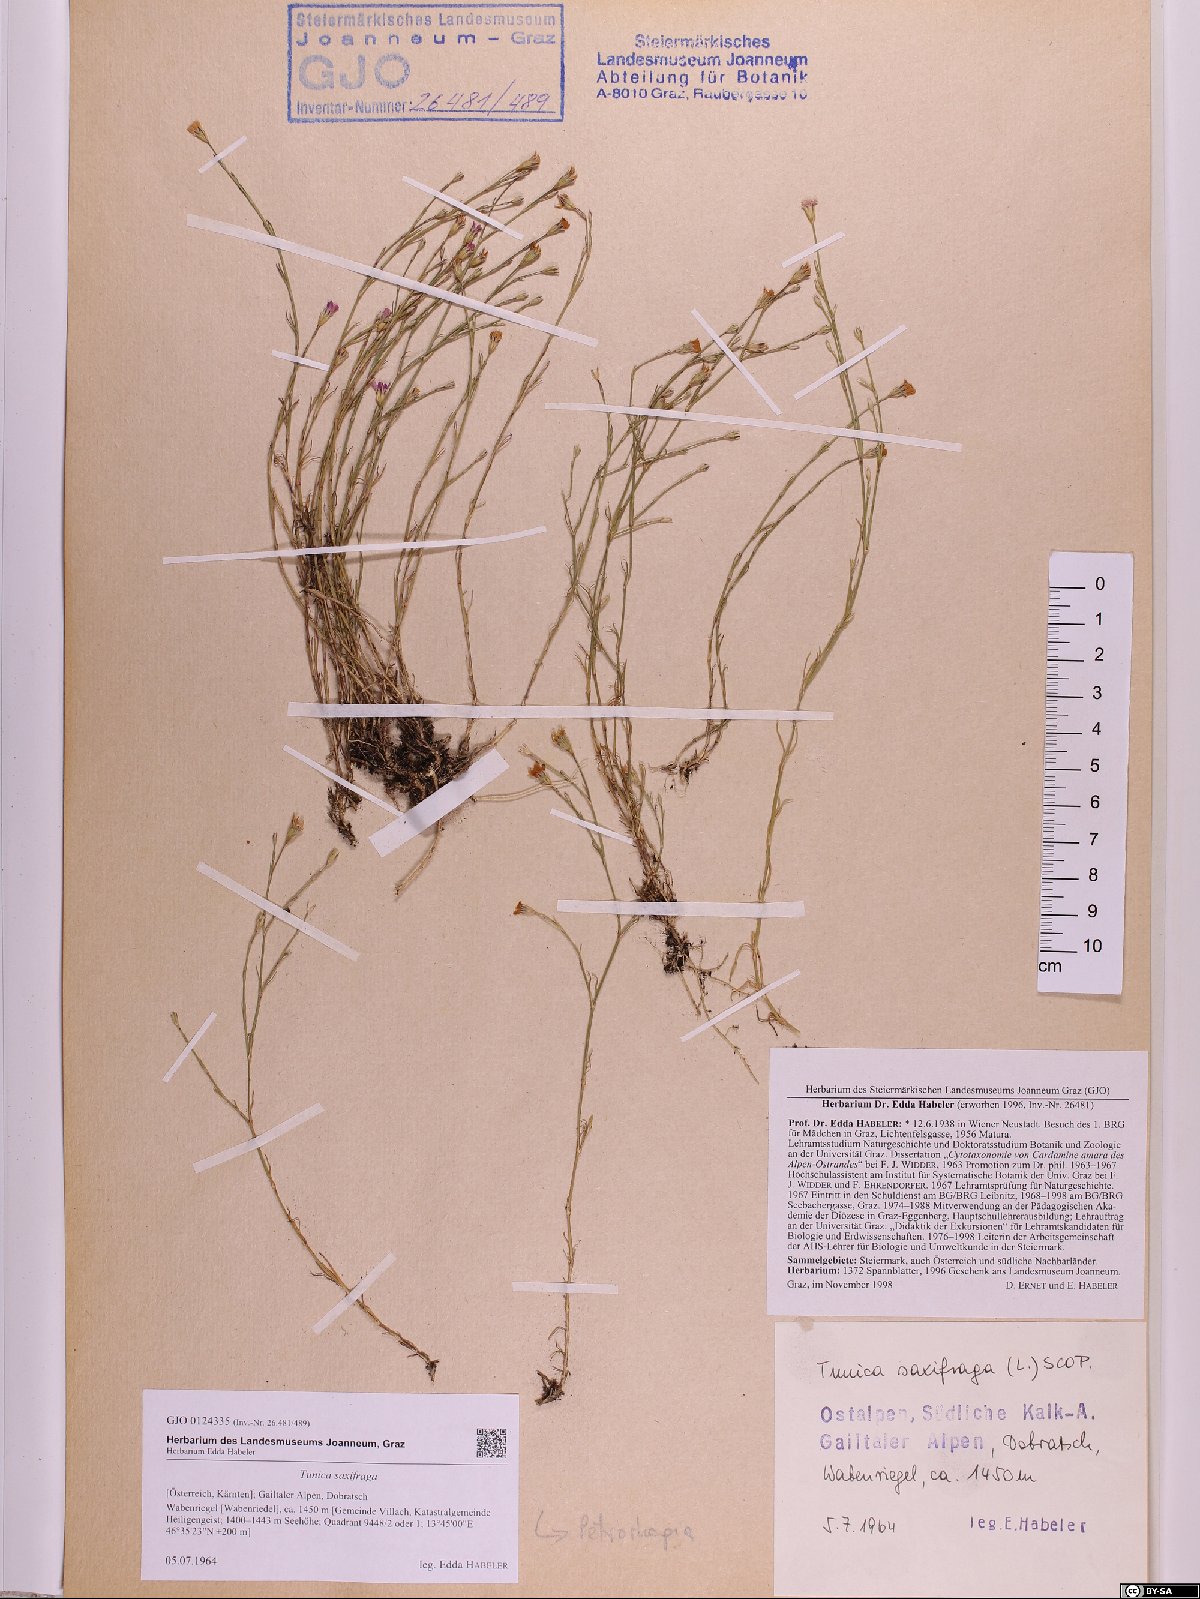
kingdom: Plantae
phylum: Tracheophyta
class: Magnoliopsida
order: Caryophyllales
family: Caryophyllaceae
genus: Petrorhagia
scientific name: Petrorhagia saxifraga
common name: Tunicflower
